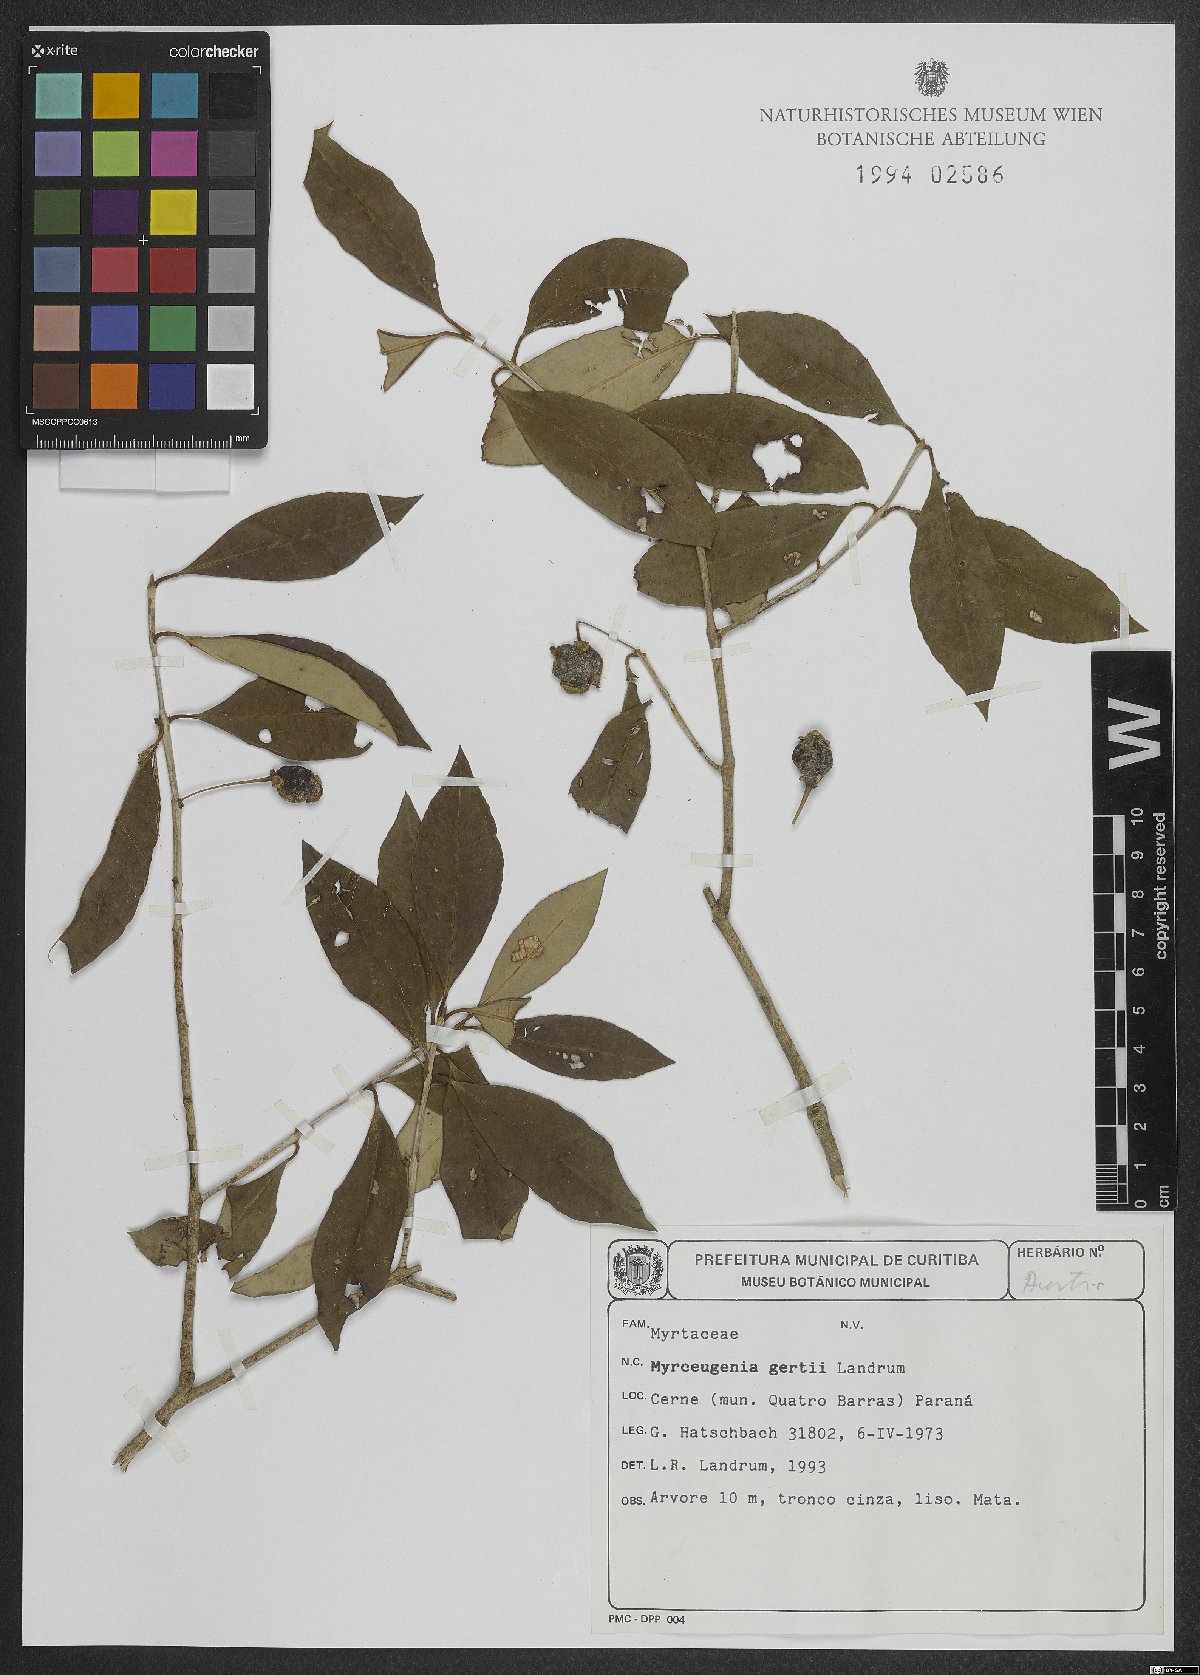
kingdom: Plantae
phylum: Tracheophyta
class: Magnoliopsida
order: Myrtales
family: Myrtaceae
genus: Myrceugenia
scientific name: Myrceugenia gertii
